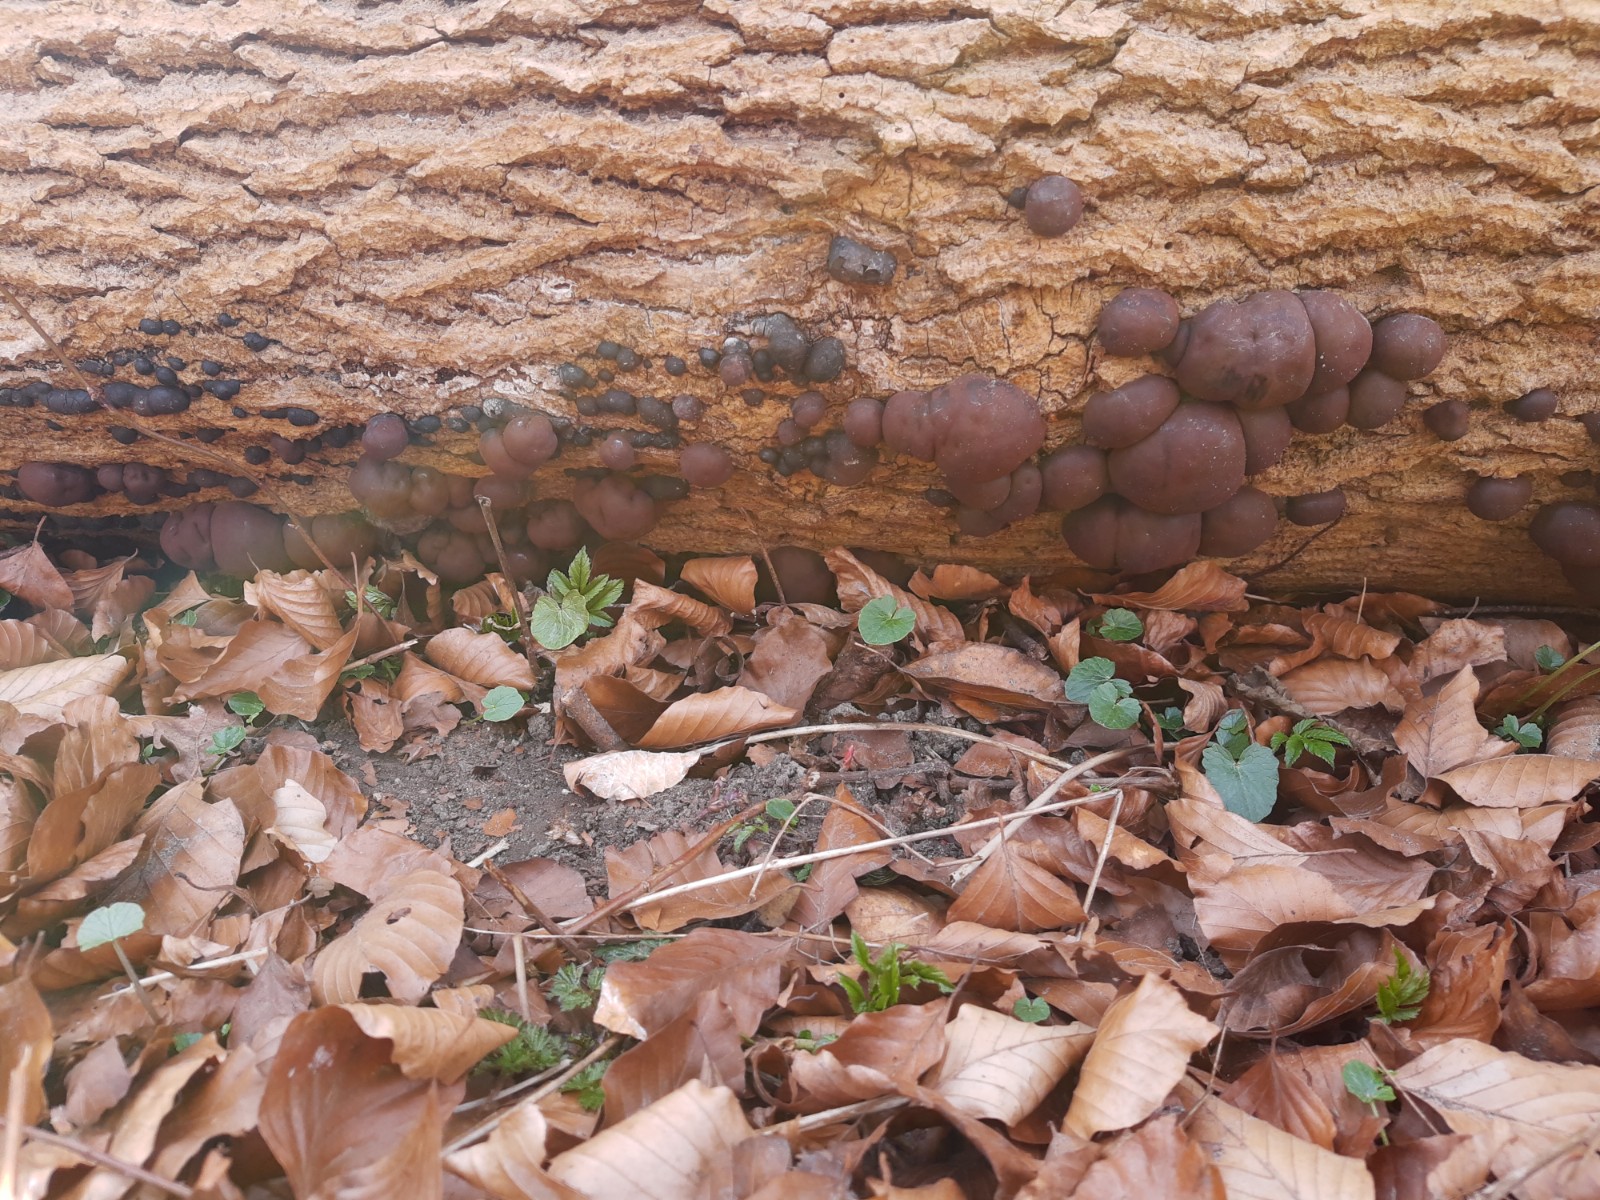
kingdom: Fungi
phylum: Ascomycota
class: Sordariomycetes
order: Xylariales
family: Hypoxylaceae
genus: Daldinia
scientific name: Daldinia concentrica
